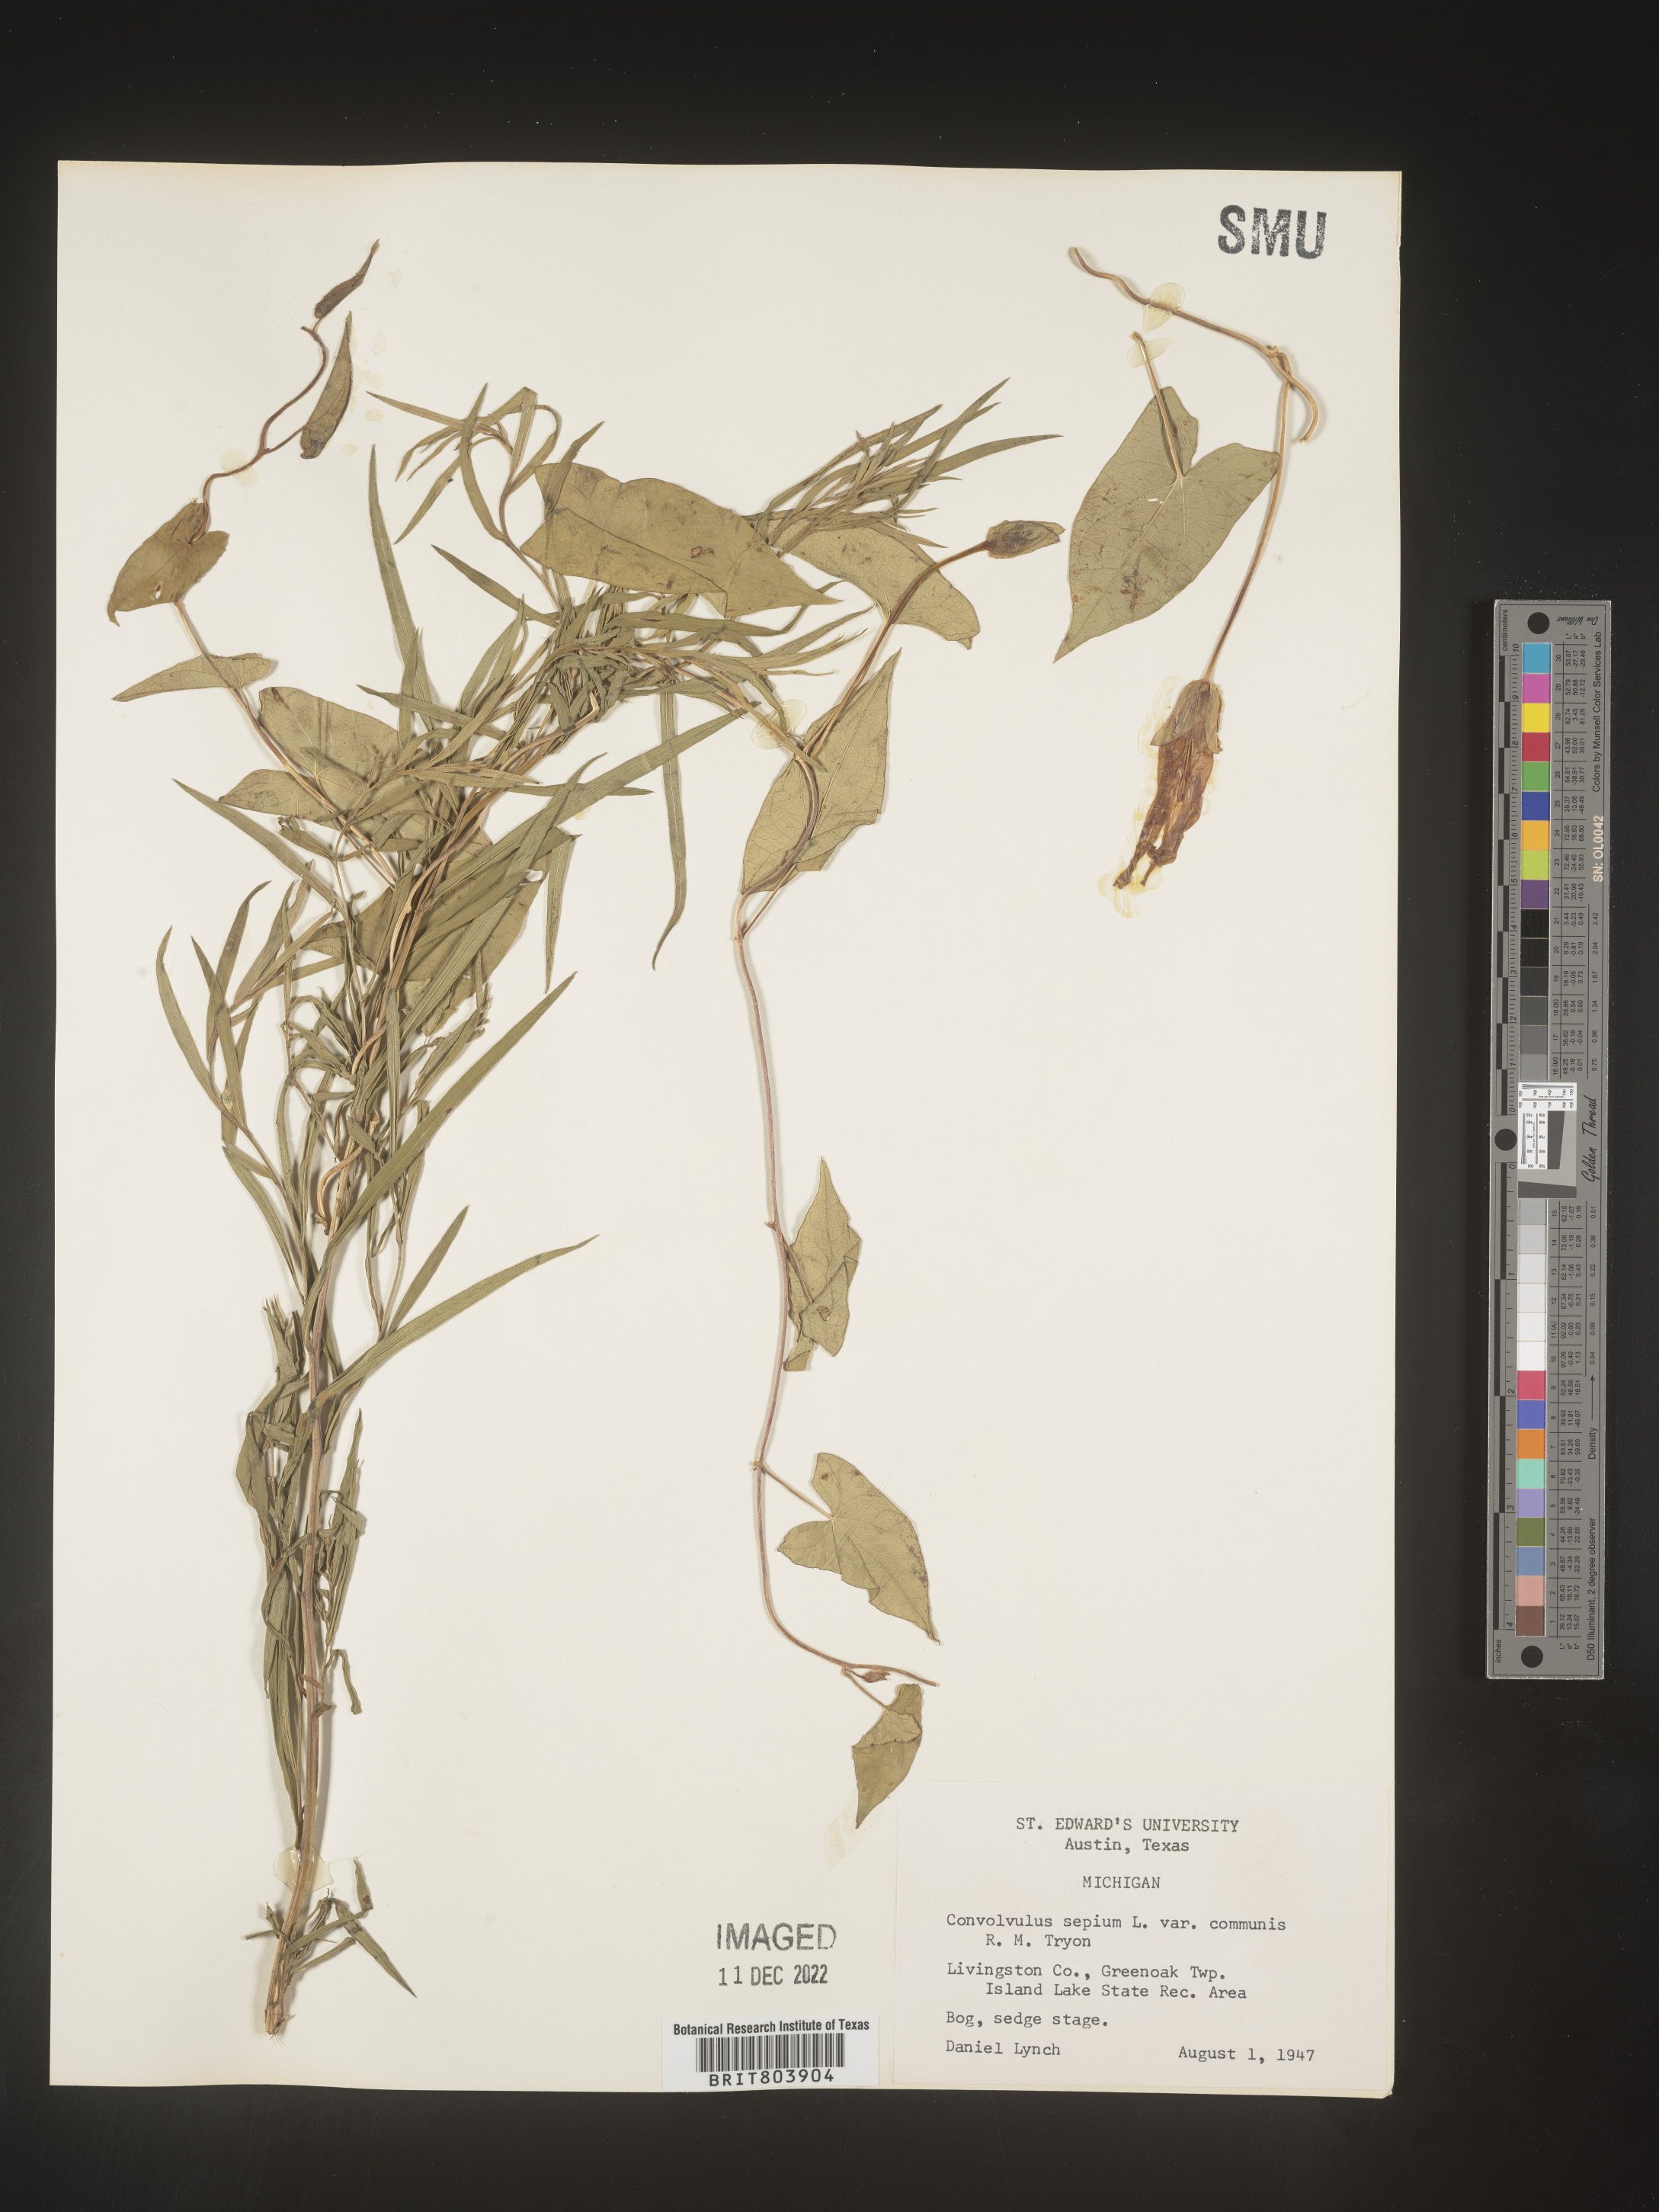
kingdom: Plantae
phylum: Tracheophyta
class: Magnoliopsida
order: Solanales
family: Convolvulaceae
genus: Calystegia
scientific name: Calystegia sepium
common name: Hedge bindweed
